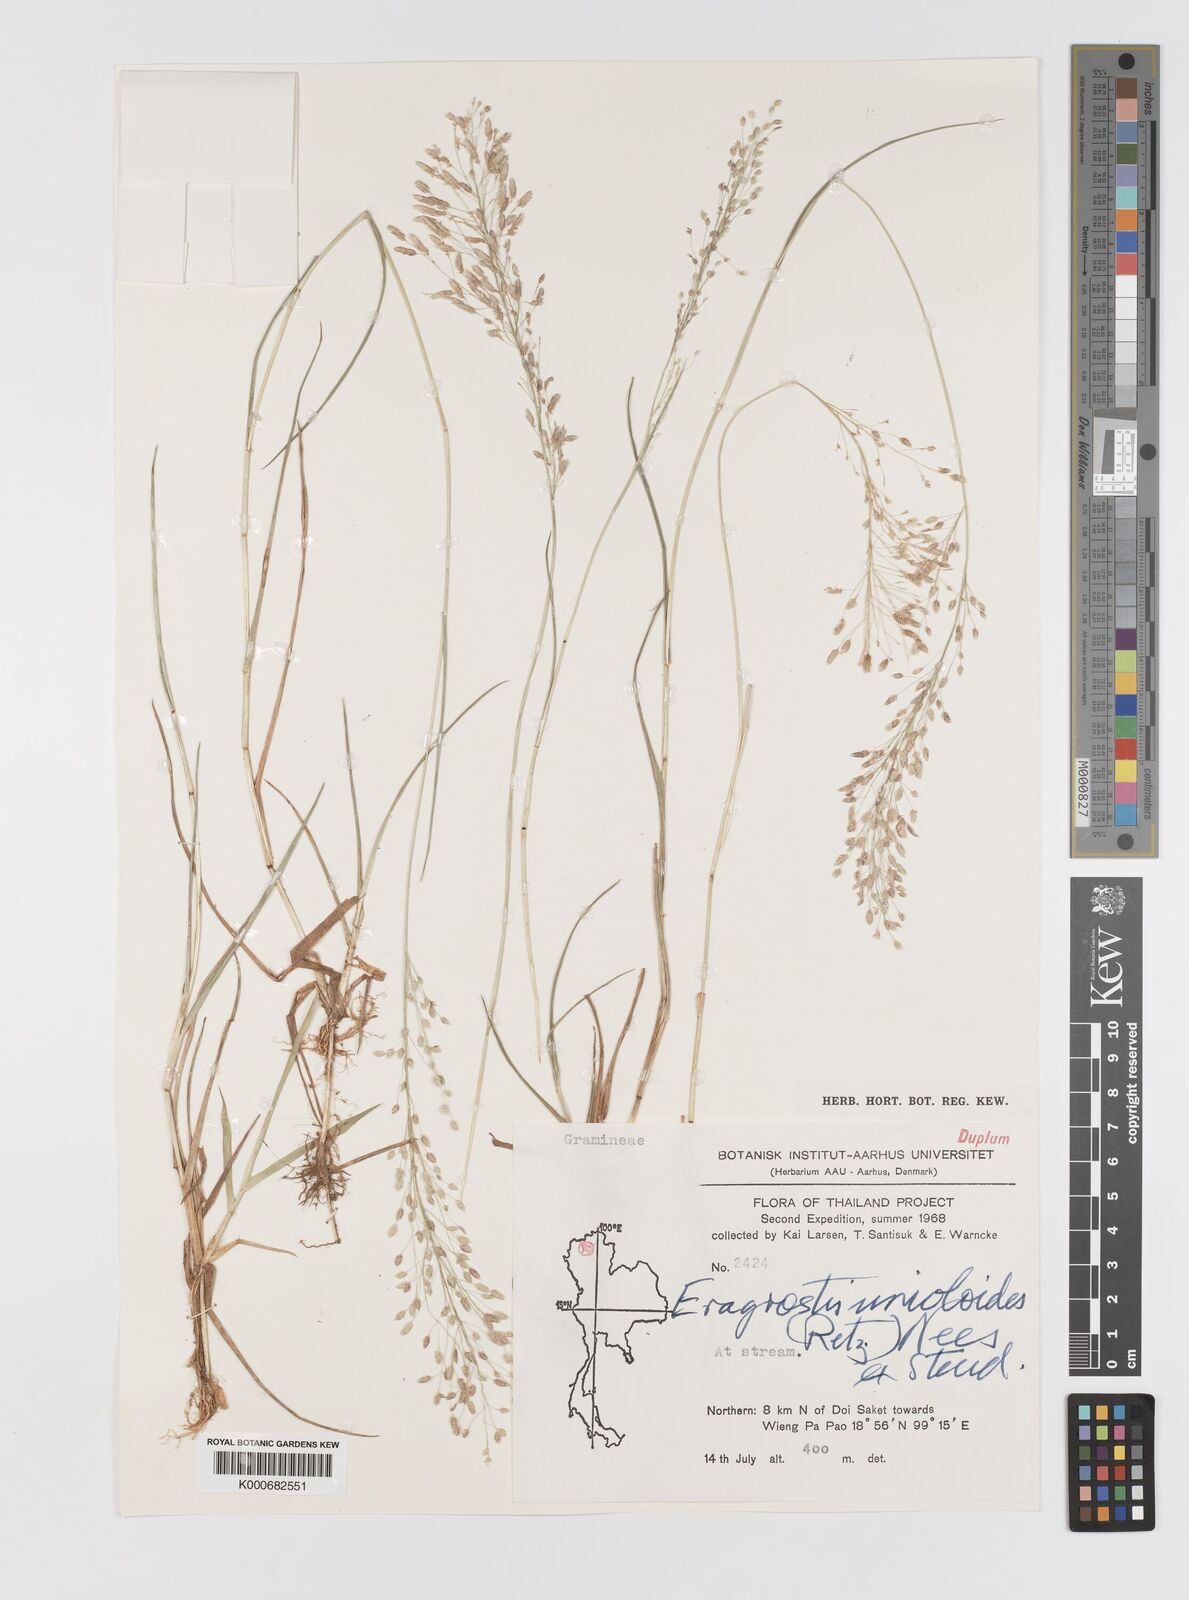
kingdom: Plantae
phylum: Tracheophyta
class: Liliopsida
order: Poales
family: Poaceae
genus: Eragrostis
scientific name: Eragrostis unioloides
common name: Chinese lovegrass
